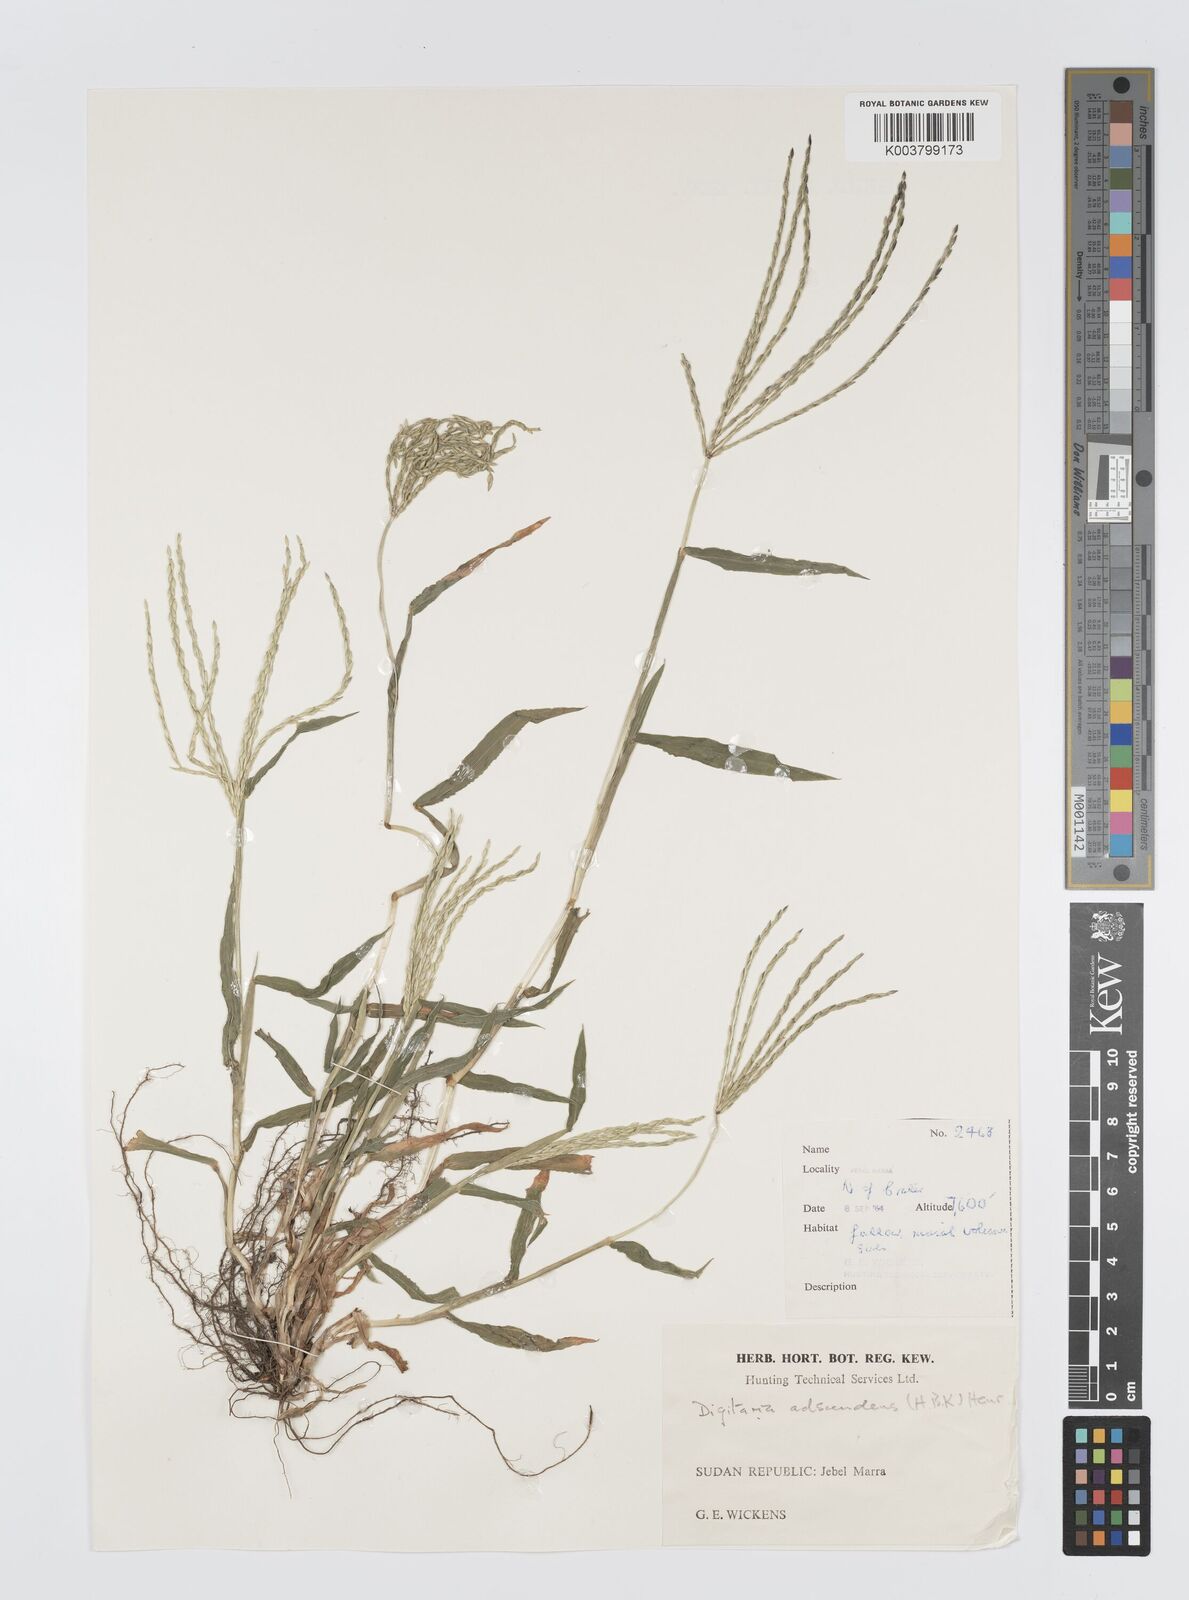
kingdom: Plantae
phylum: Tracheophyta
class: Liliopsida
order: Poales
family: Poaceae
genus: Digitaria
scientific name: Digitaria sanguinalis
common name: Hairy crabgrass
